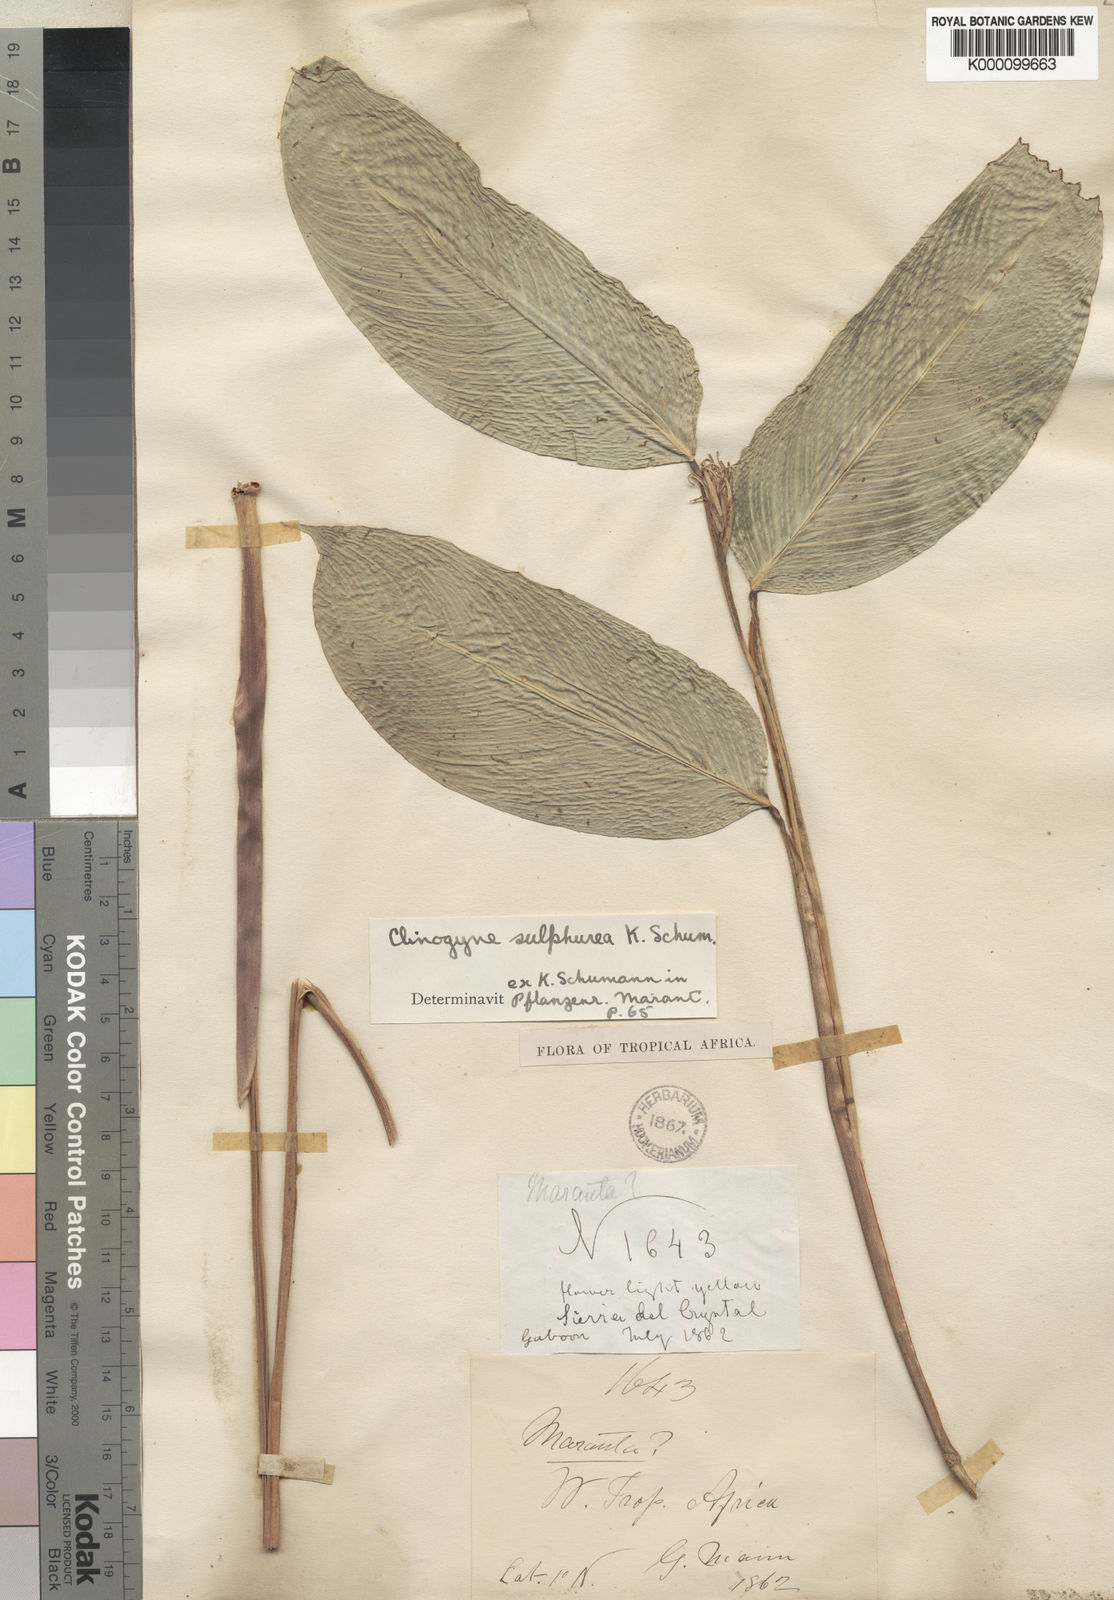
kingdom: Plantae
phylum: Tracheophyta
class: Liliopsida
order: Zingiberales
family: Marantaceae
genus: Marantochloa
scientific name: Marantochloa sulphurea
